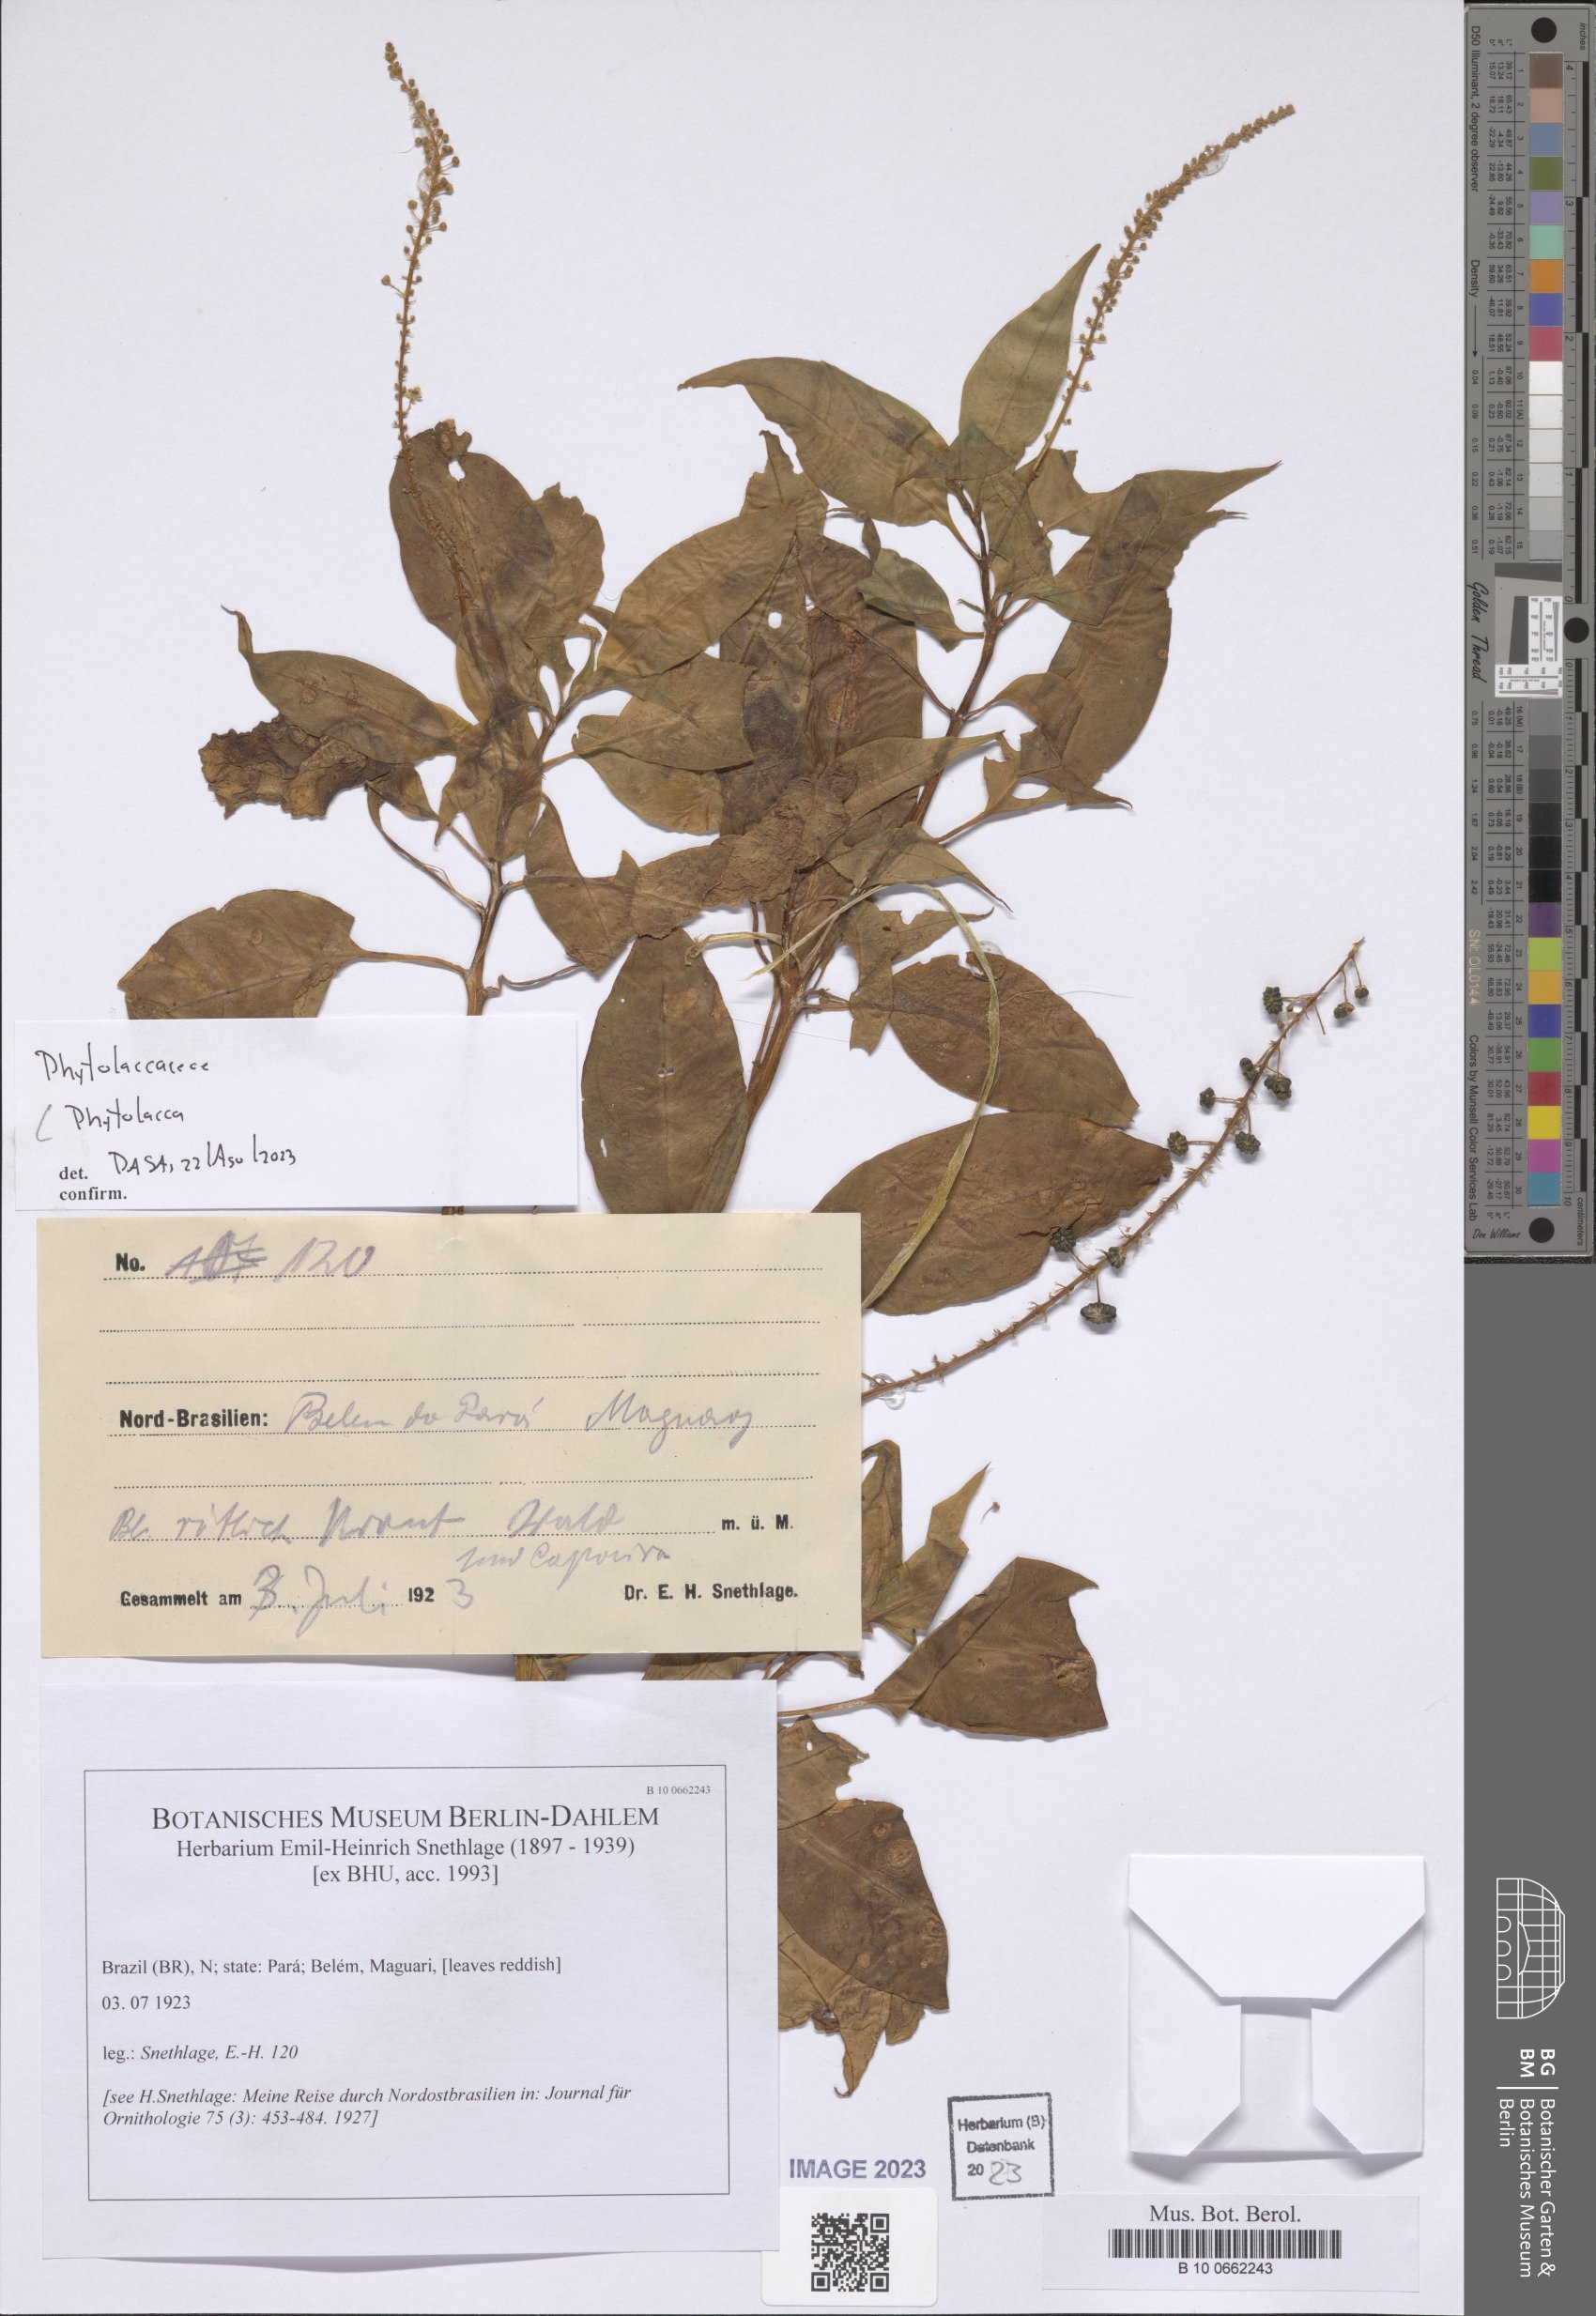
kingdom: Plantae
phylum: Tracheophyta
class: Magnoliopsida
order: Caryophyllales
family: Phytolaccaceae
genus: Phytolacca
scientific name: Phytolacca
